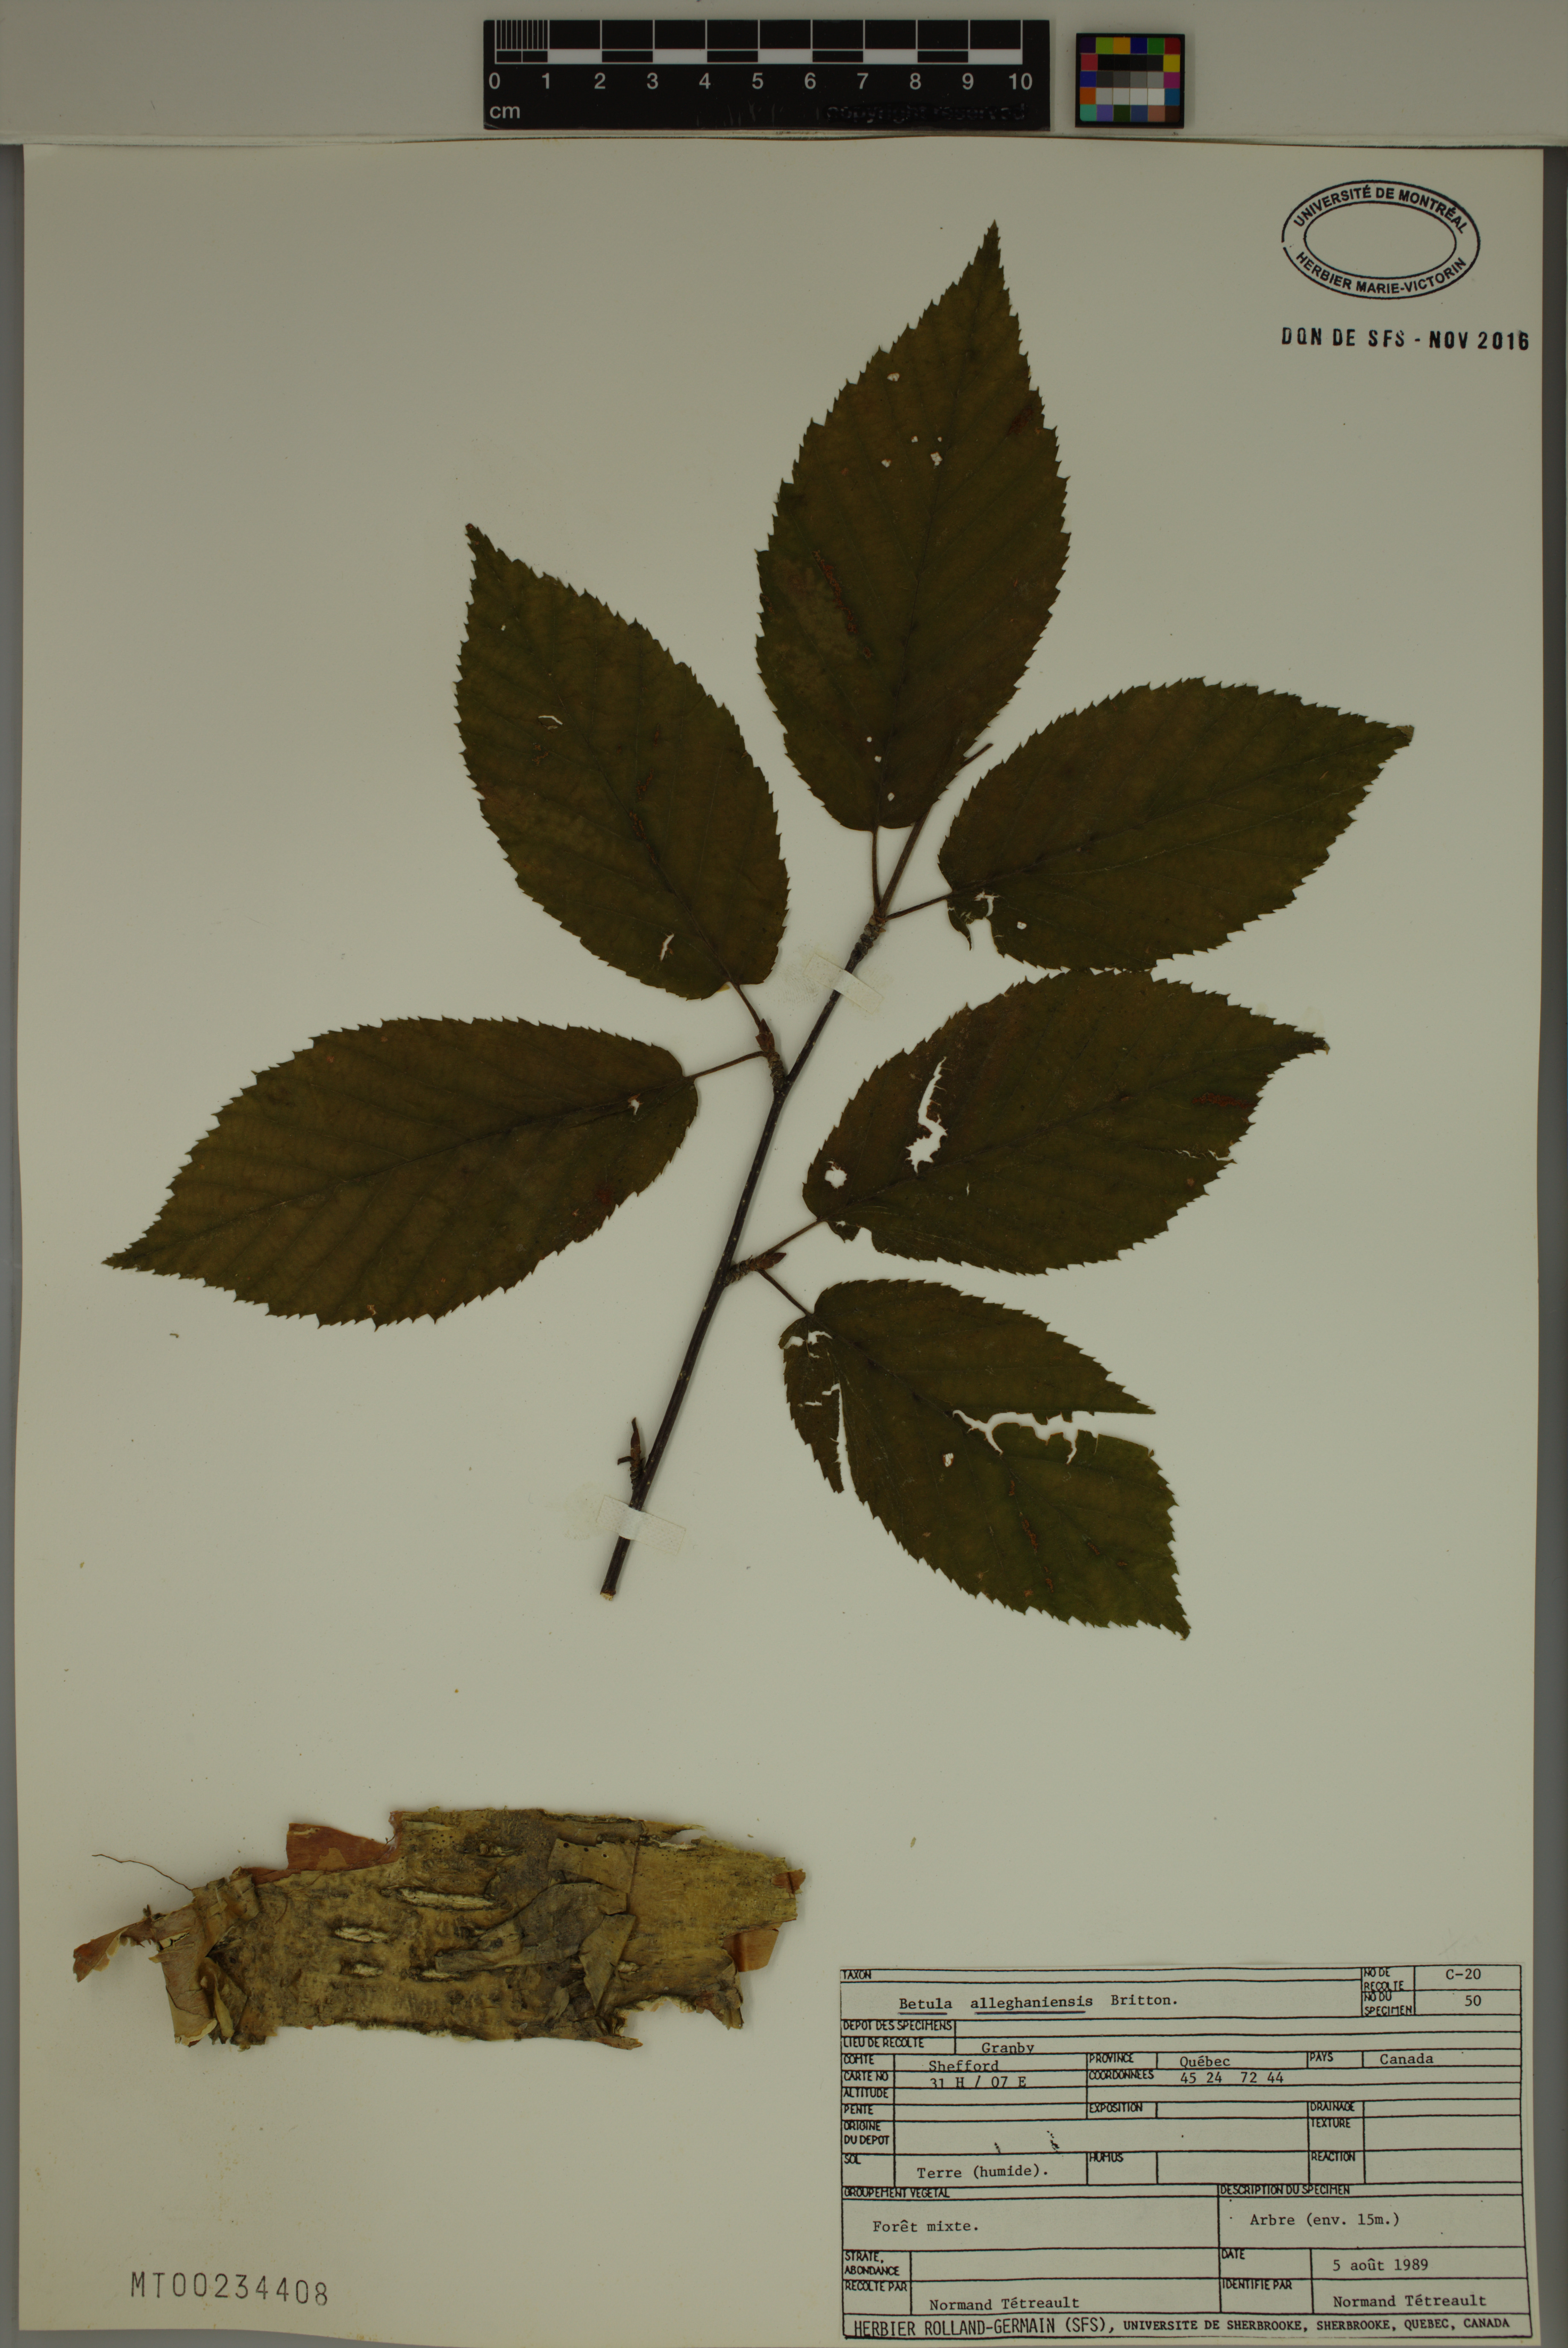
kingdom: Plantae
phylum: Tracheophyta
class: Magnoliopsida
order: Fagales
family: Betulaceae
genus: Betula
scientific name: Betula alleghaniensis
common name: Yellow birch
